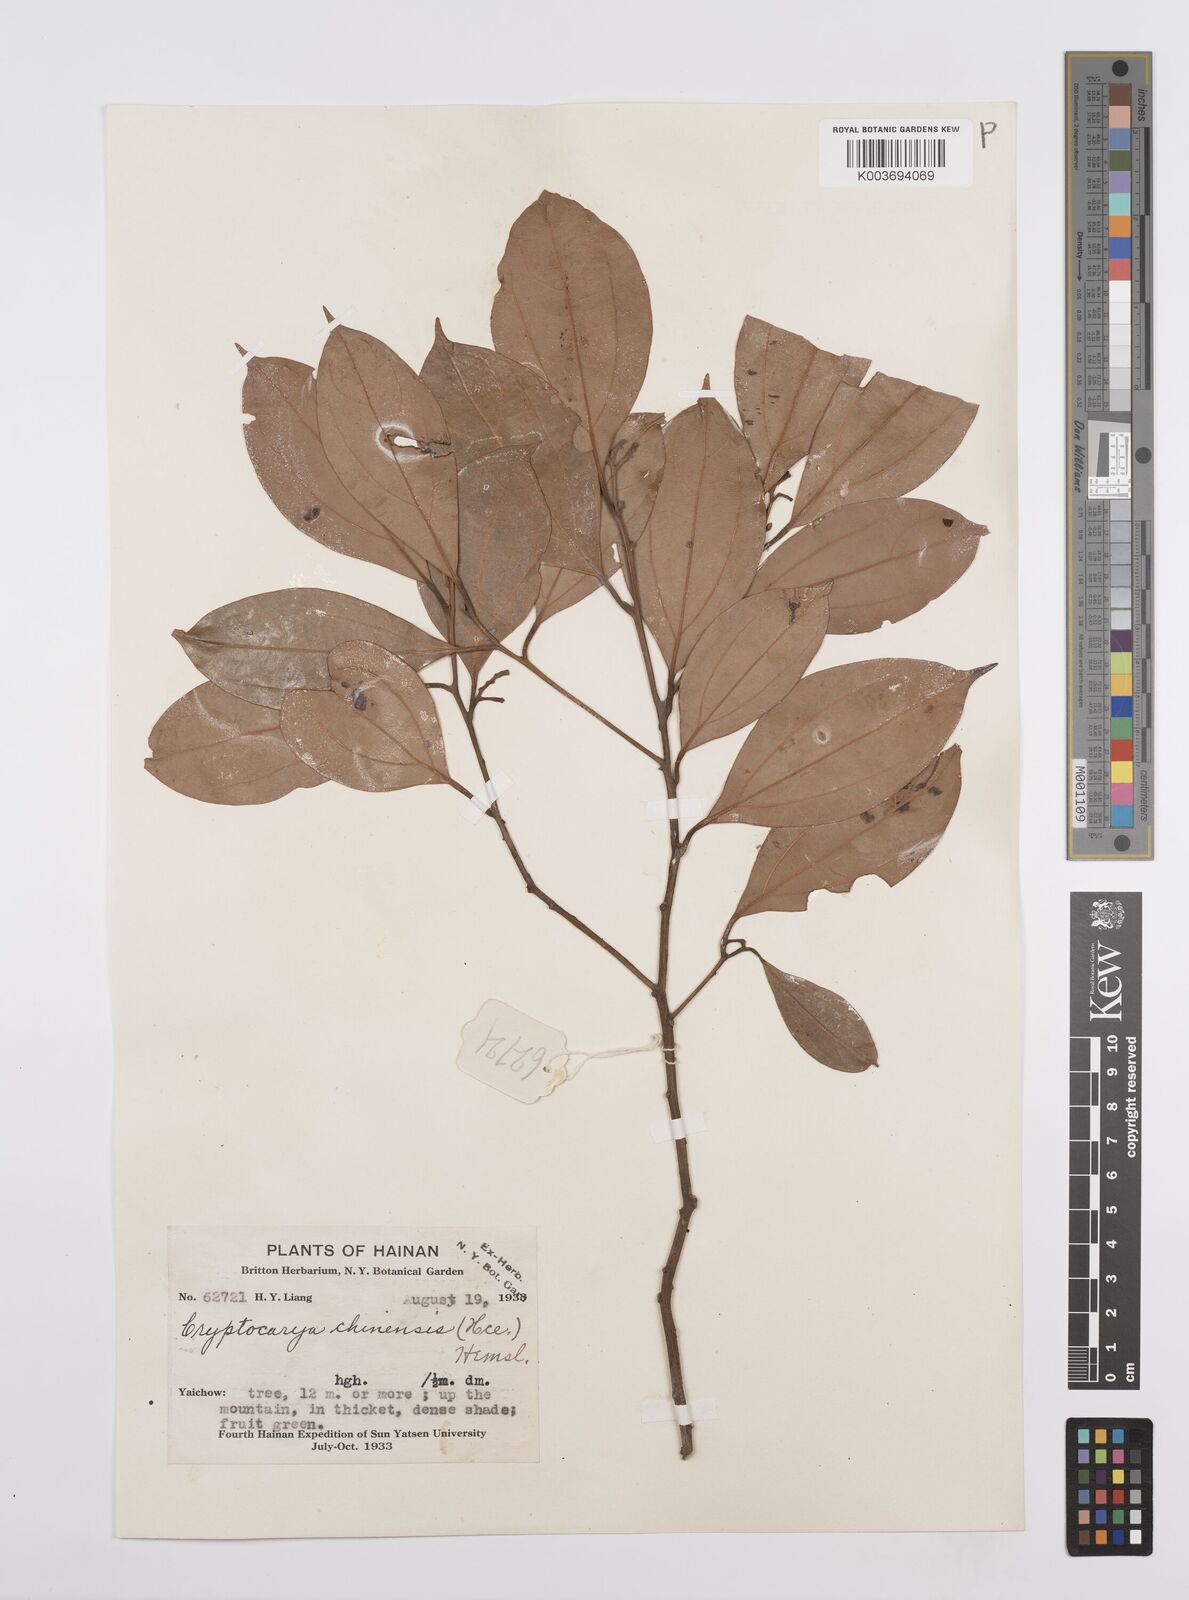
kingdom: Plantae
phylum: Tracheophyta
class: Magnoliopsida
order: Laurales
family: Lauraceae
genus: Cryptocarya
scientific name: Cryptocarya chinensis
